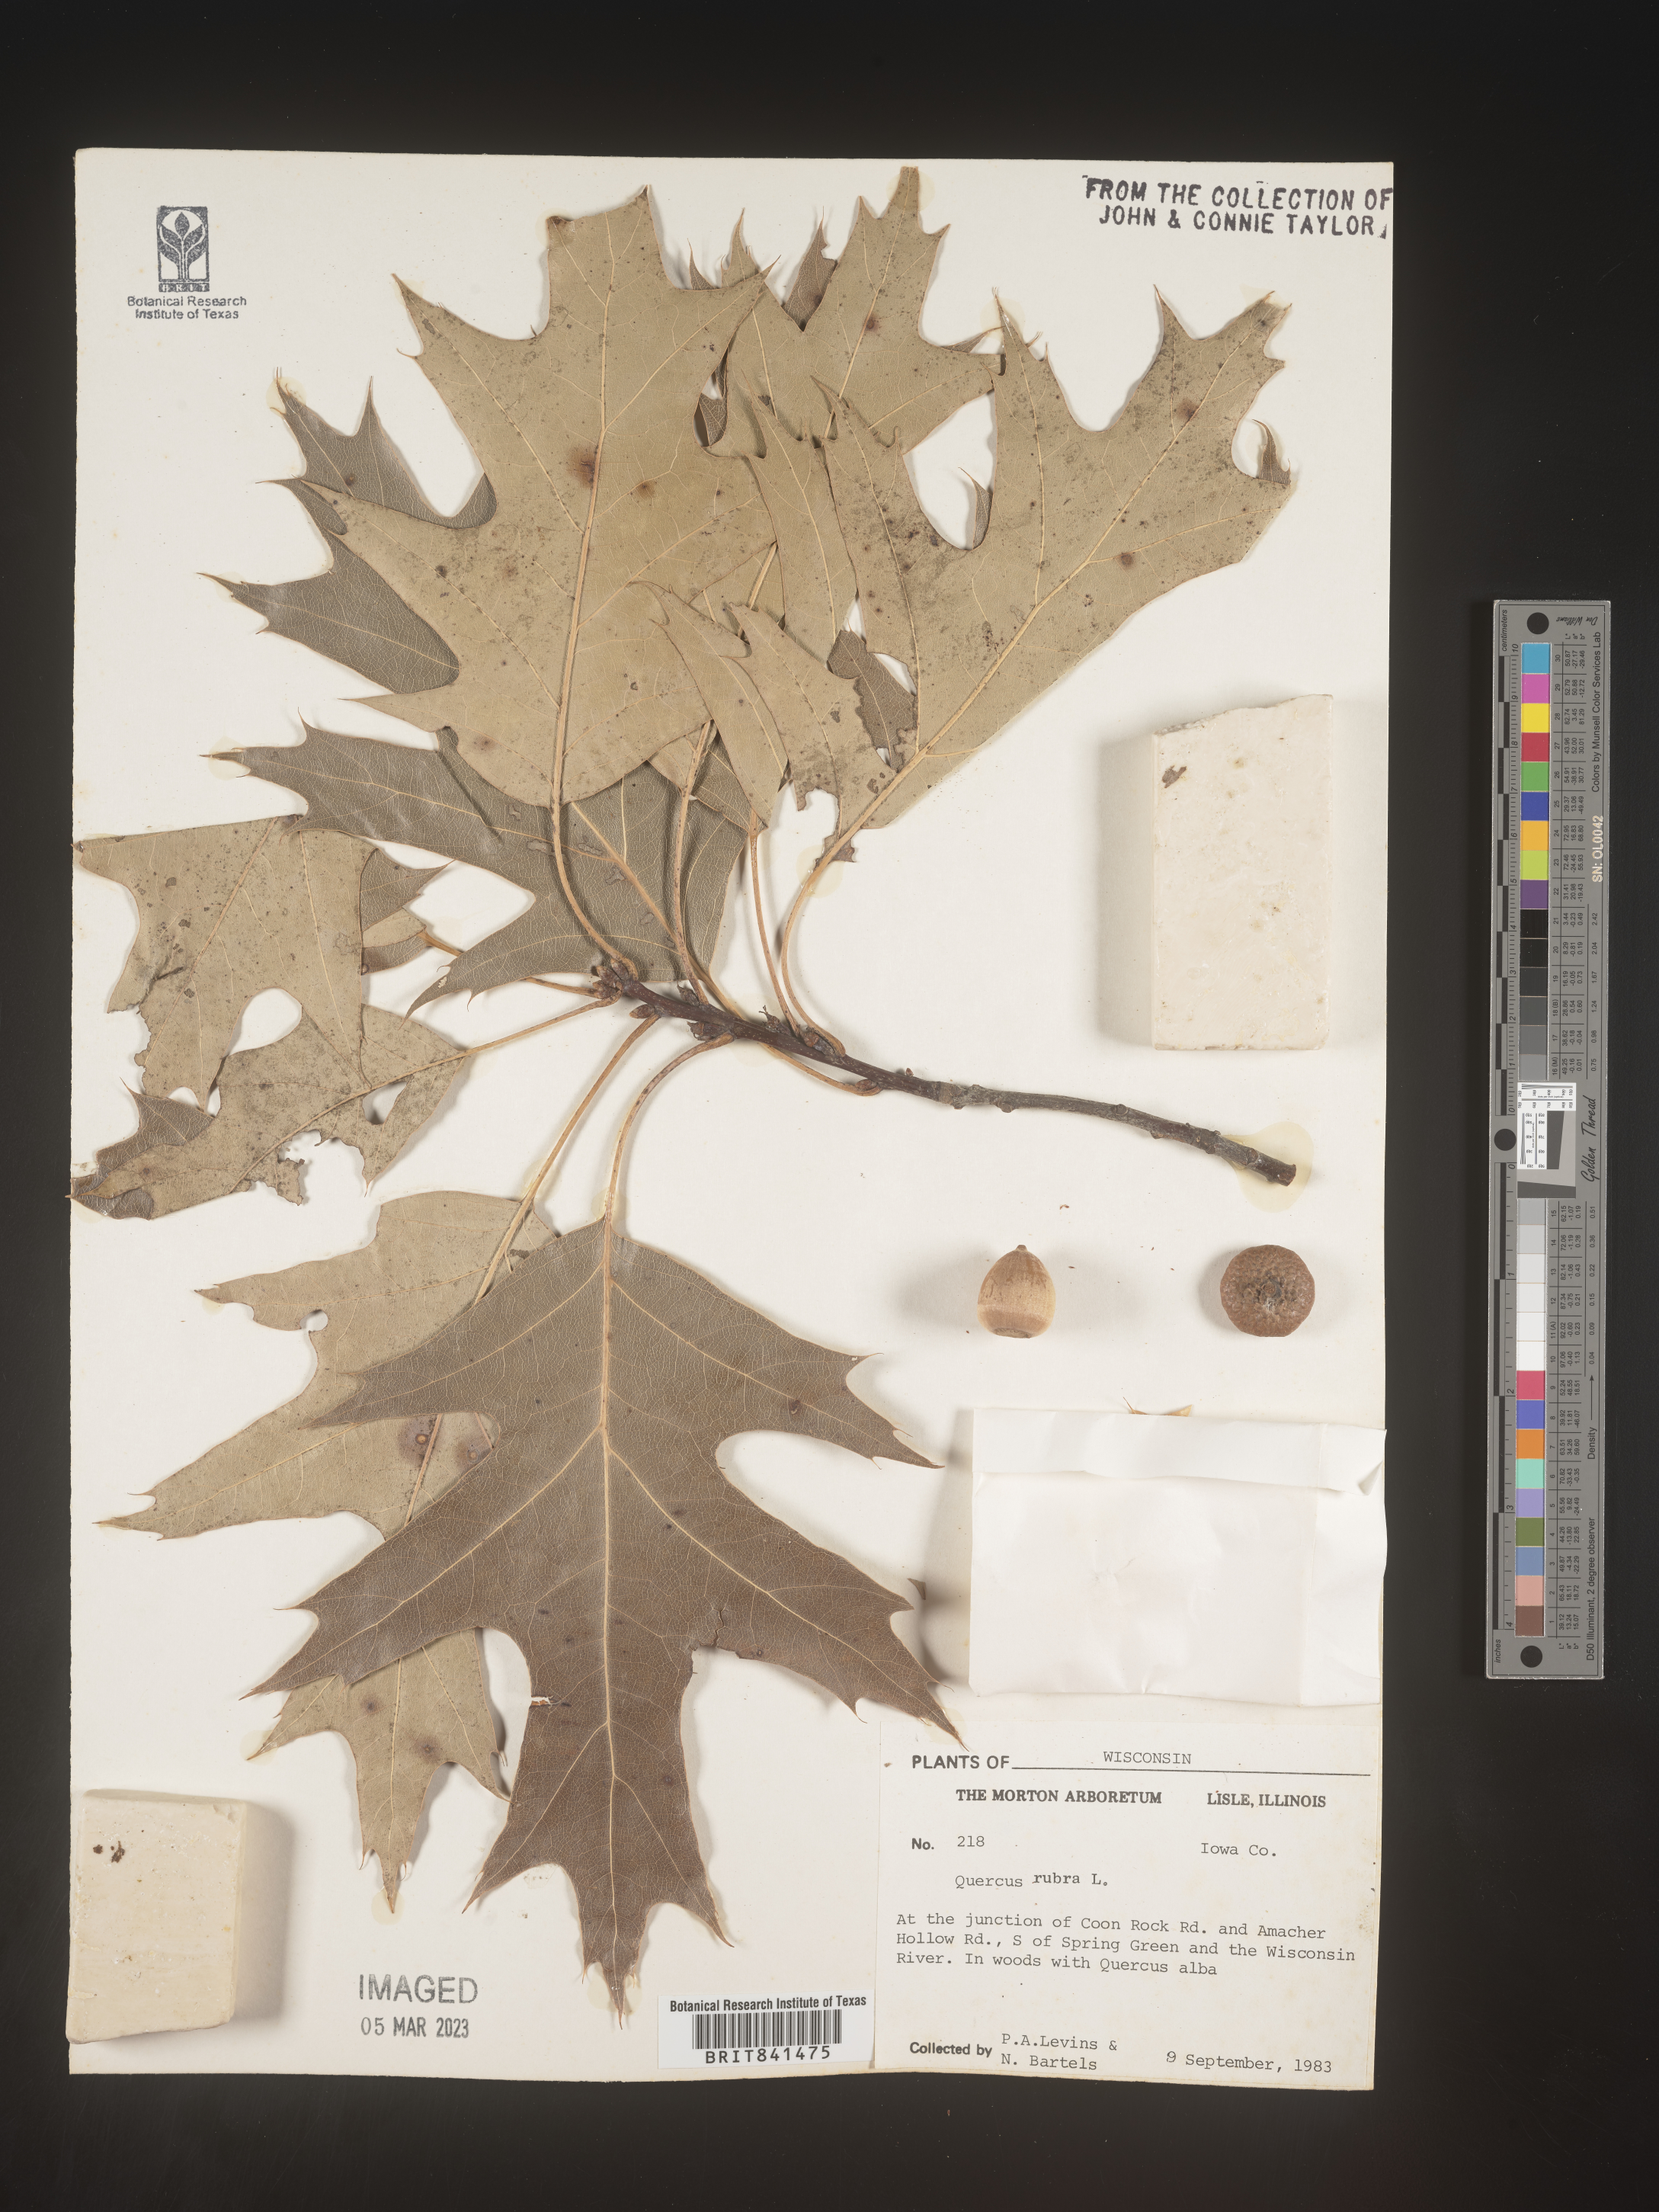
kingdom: Plantae
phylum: Tracheophyta
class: Magnoliopsida
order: Fagales
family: Fagaceae
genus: Quercus
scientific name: Quercus rubra
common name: Red oak
